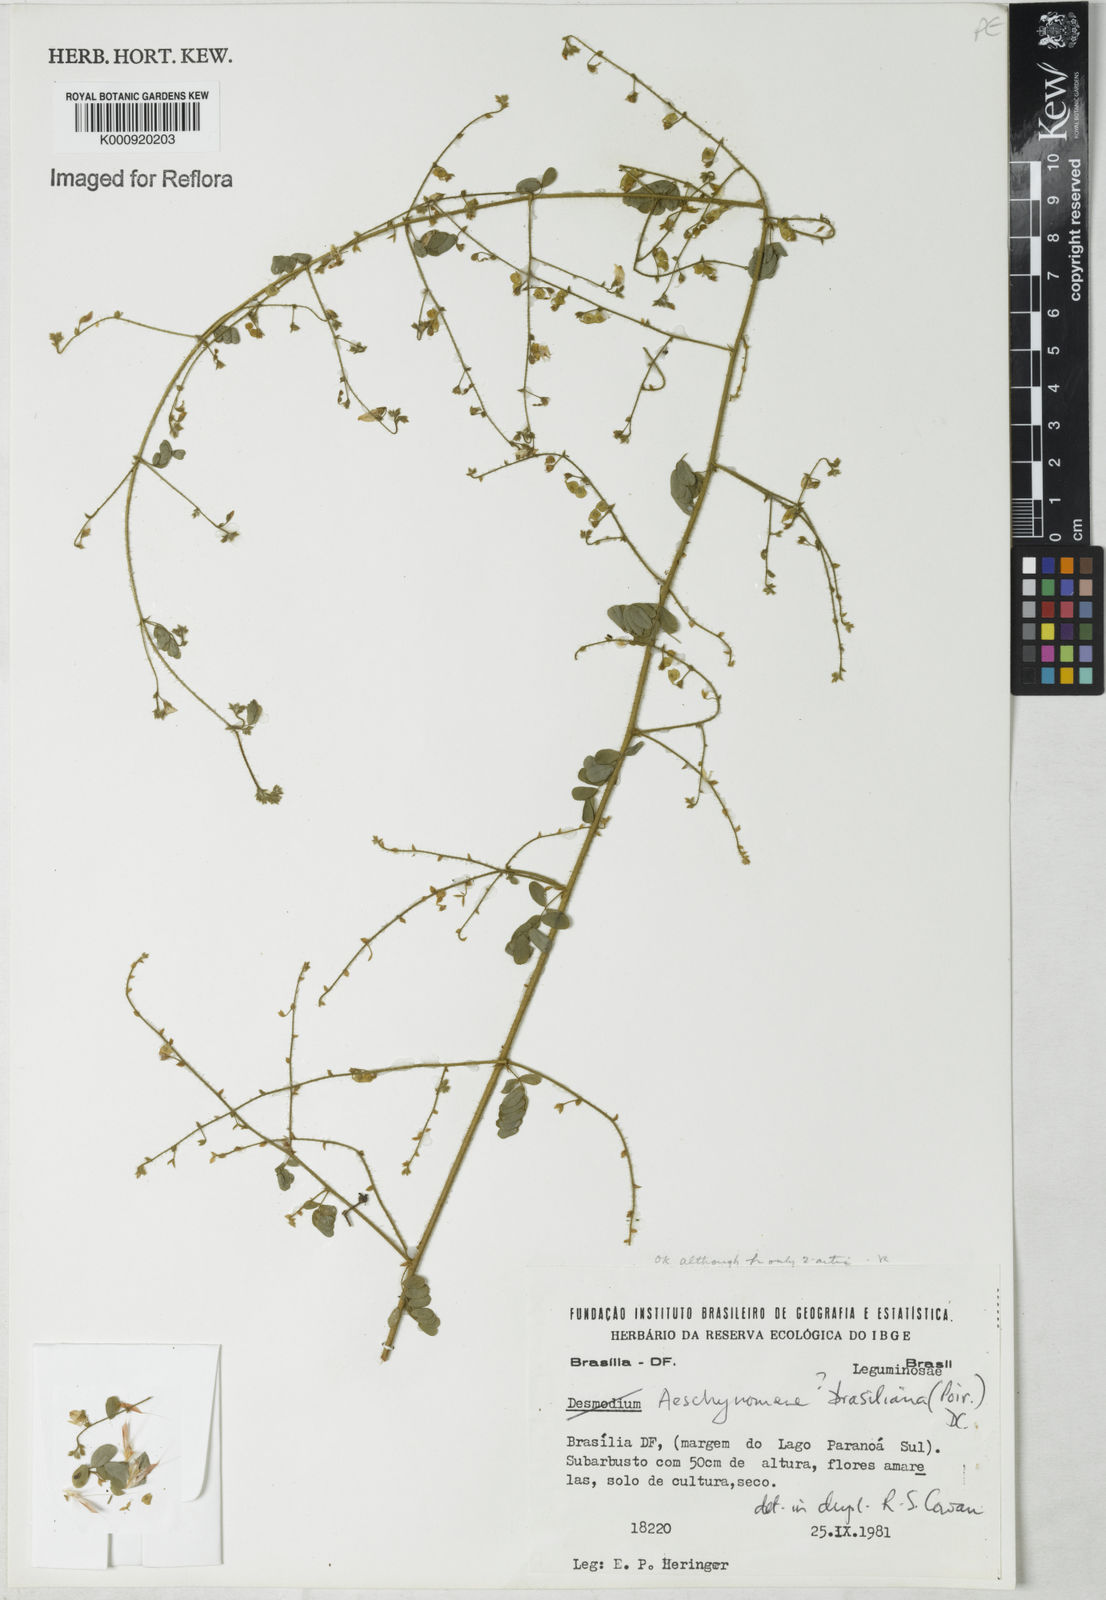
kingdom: Plantae
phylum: Tracheophyta
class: Magnoliopsida
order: Fabales
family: Fabaceae
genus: Ctenodon
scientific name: Ctenodon brasilianus
